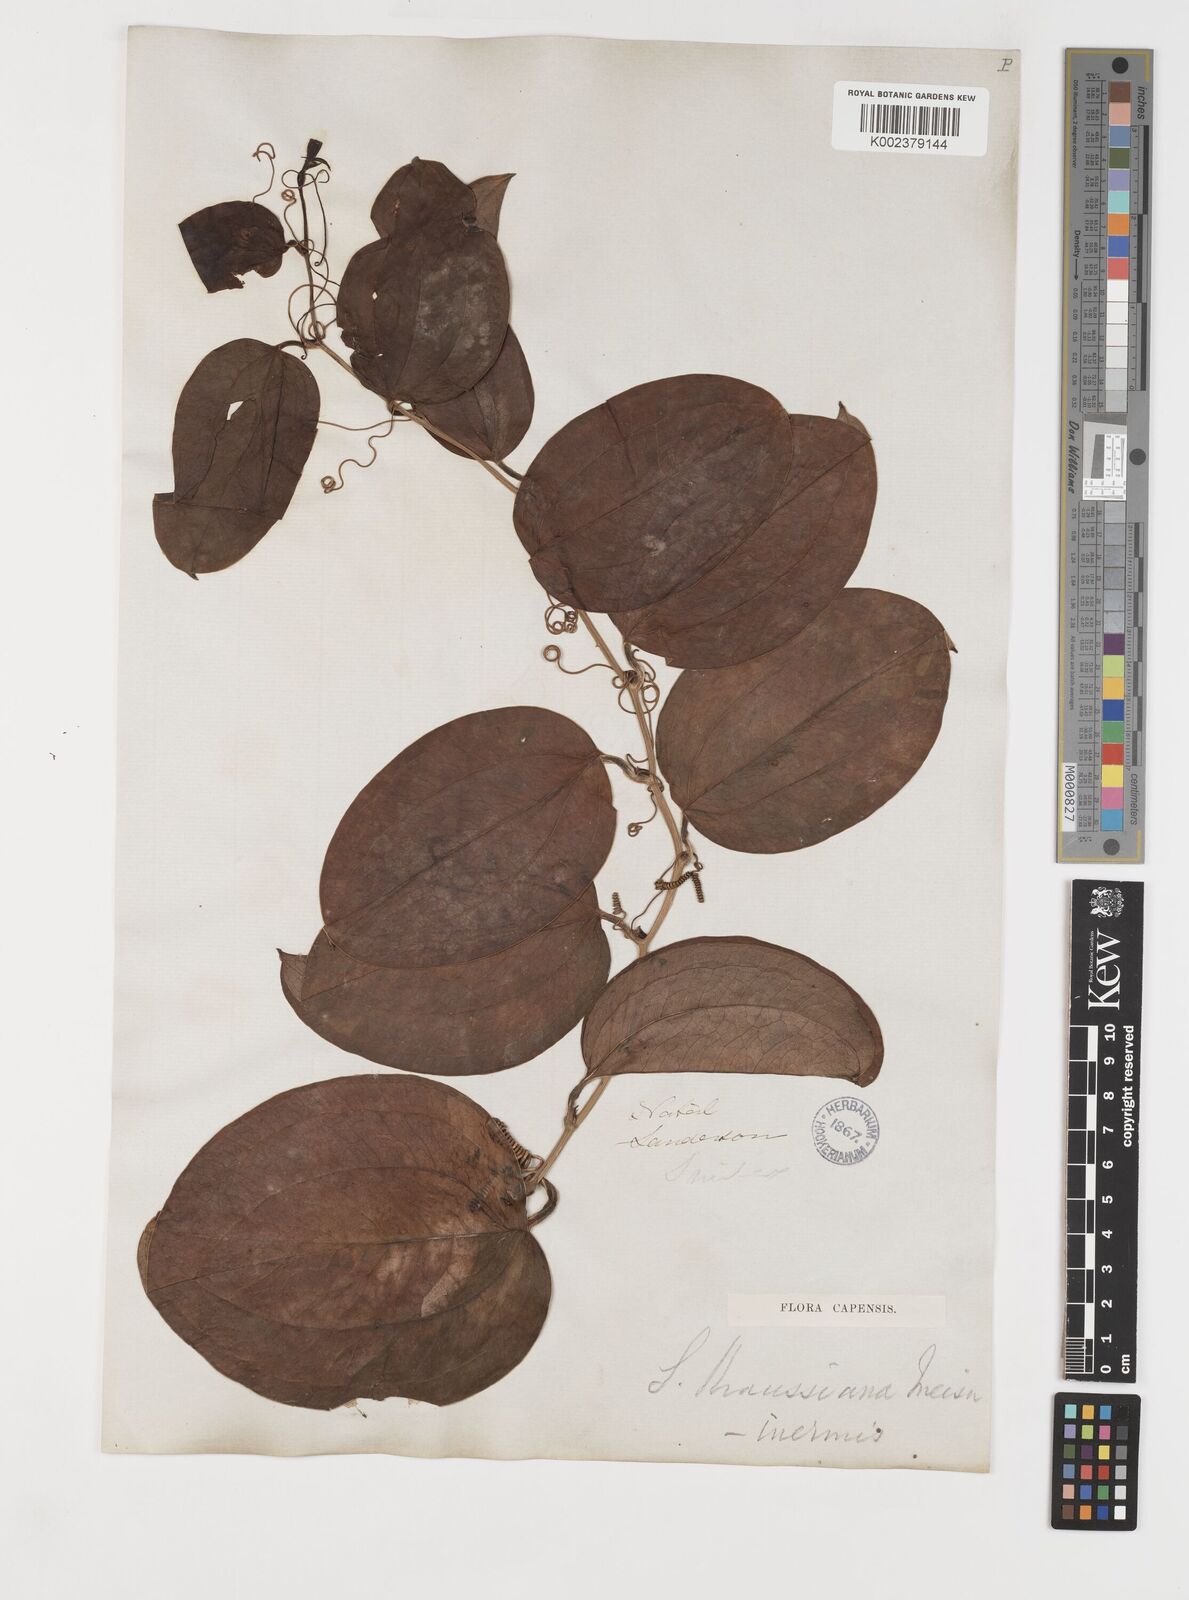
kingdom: Plantae
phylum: Tracheophyta
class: Liliopsida
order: Liliales
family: Smilacaceae
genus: Smilax
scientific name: Smilax anceps
